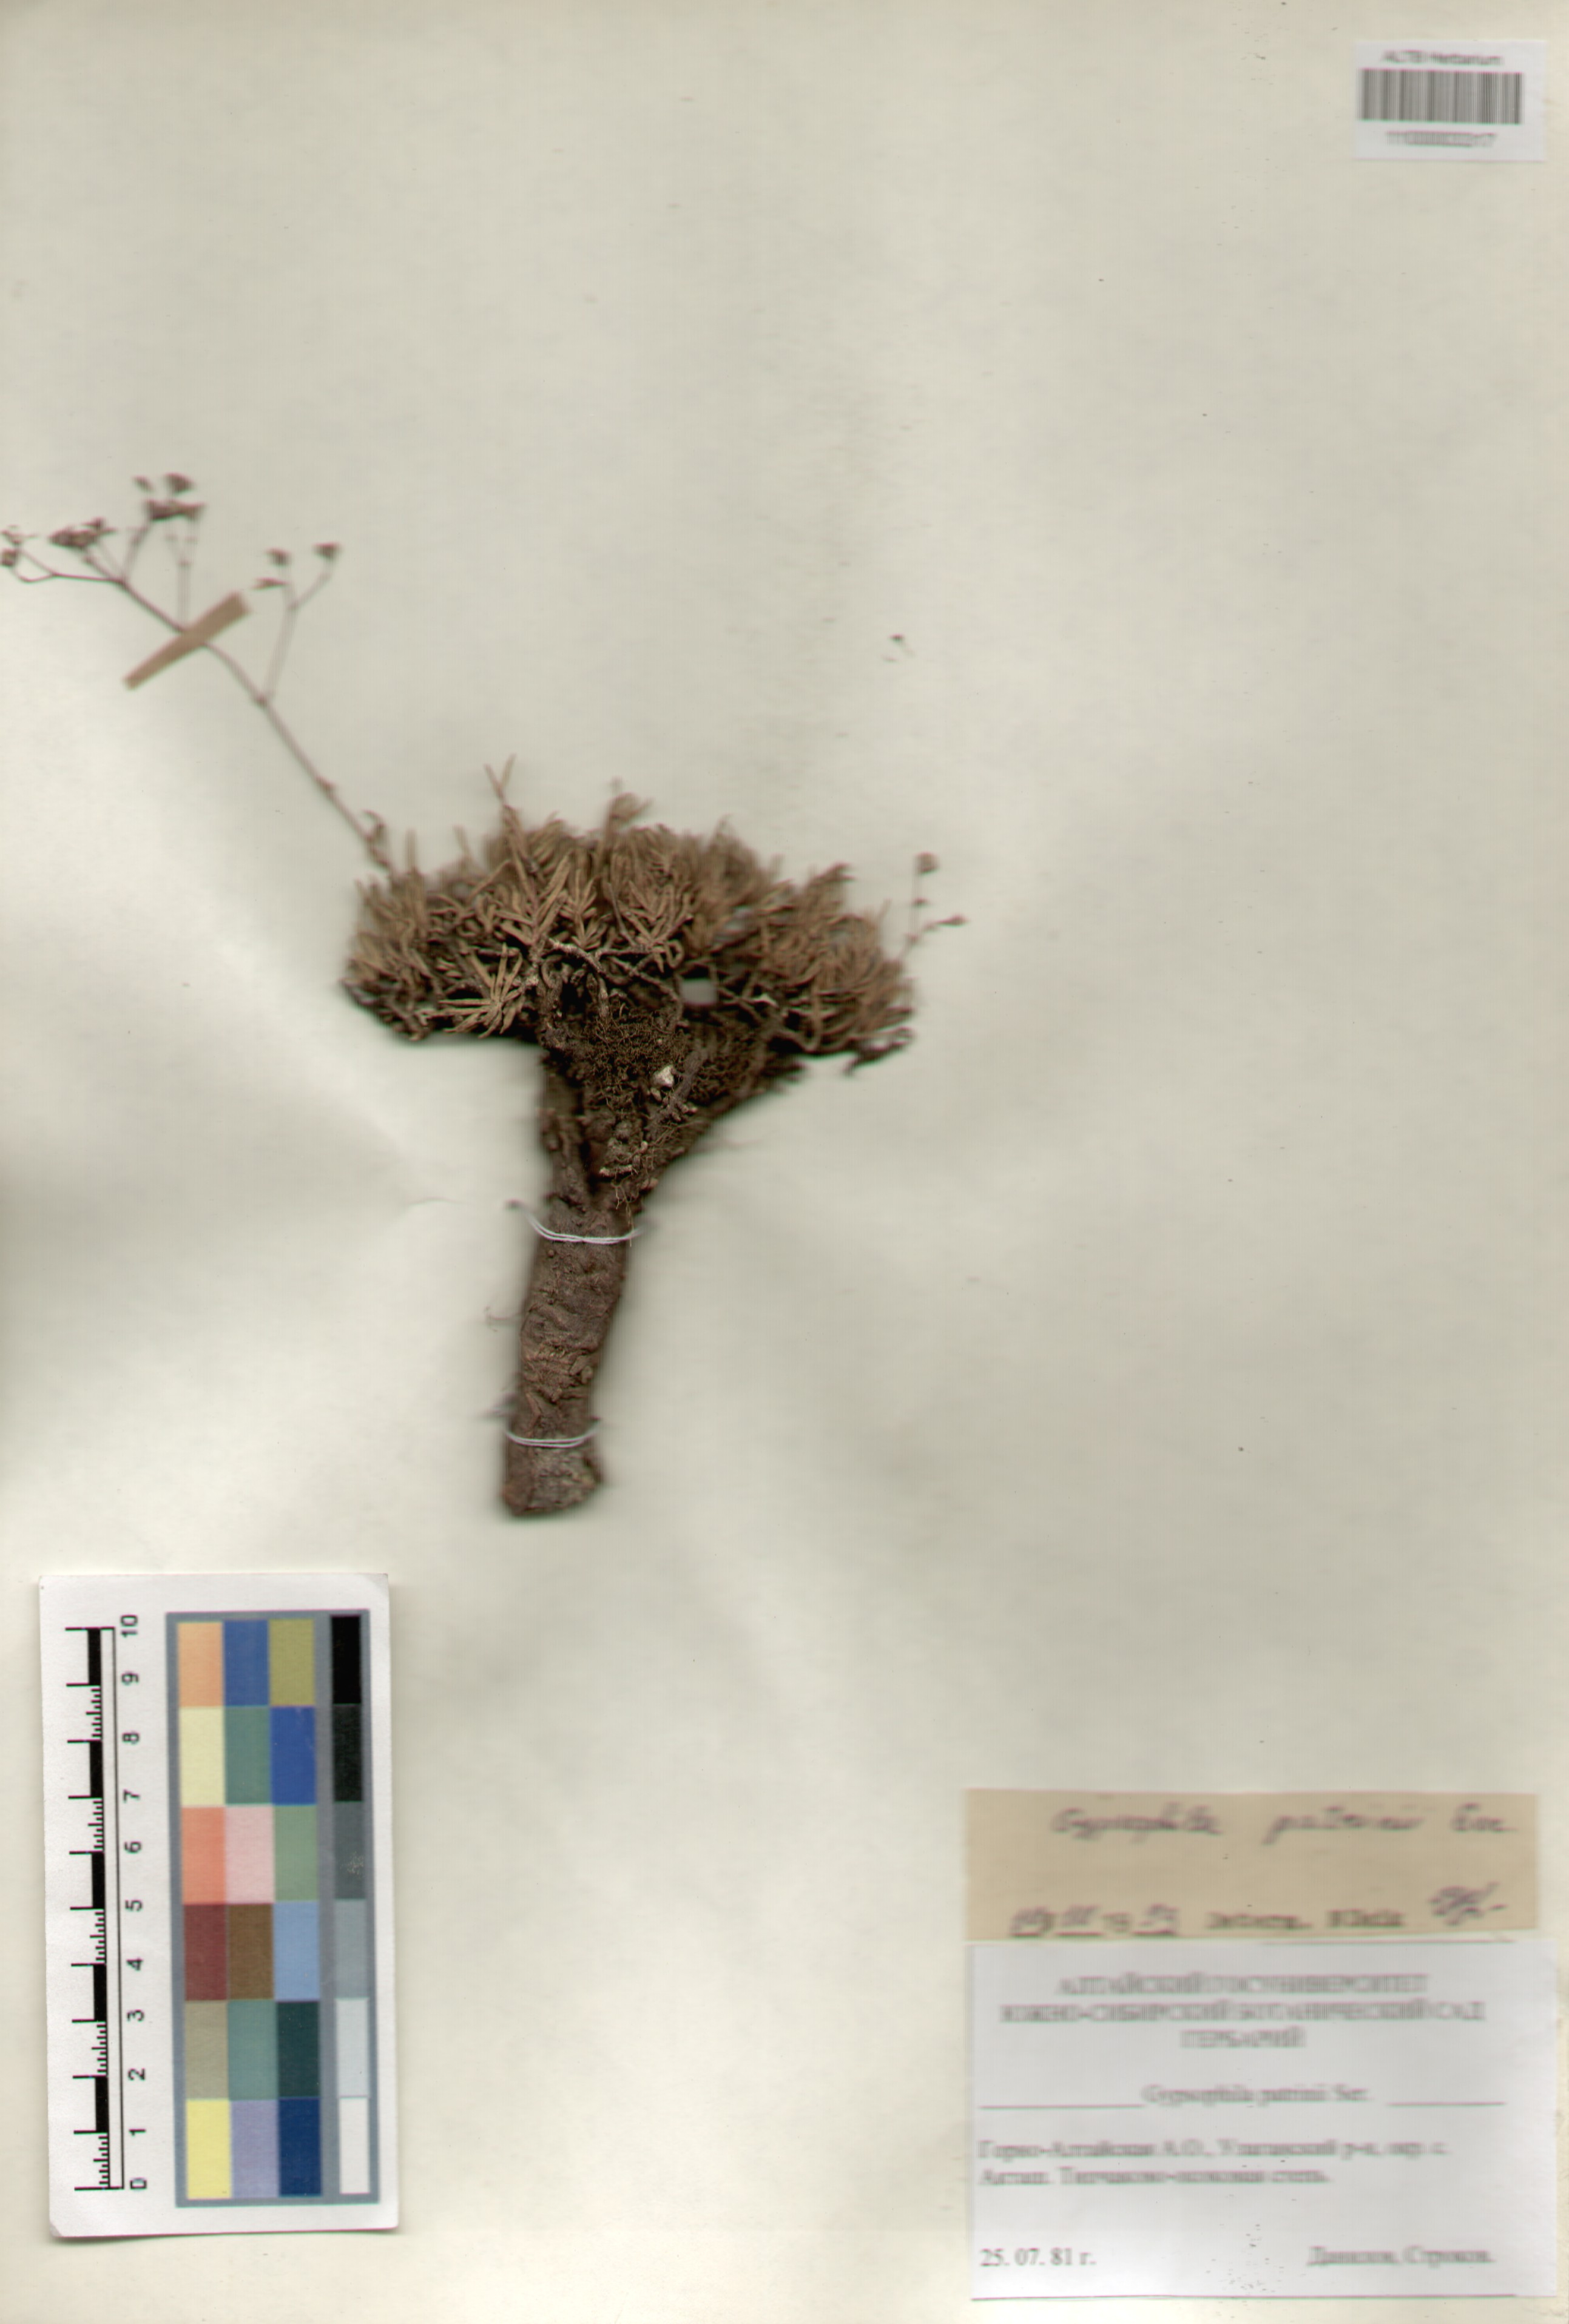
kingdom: Plantae
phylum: Tracheophyta
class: Magnoliopsida
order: Caryophyllales
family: Caryophyllaceae
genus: Gypsophila
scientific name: Gypsophila patrinii
